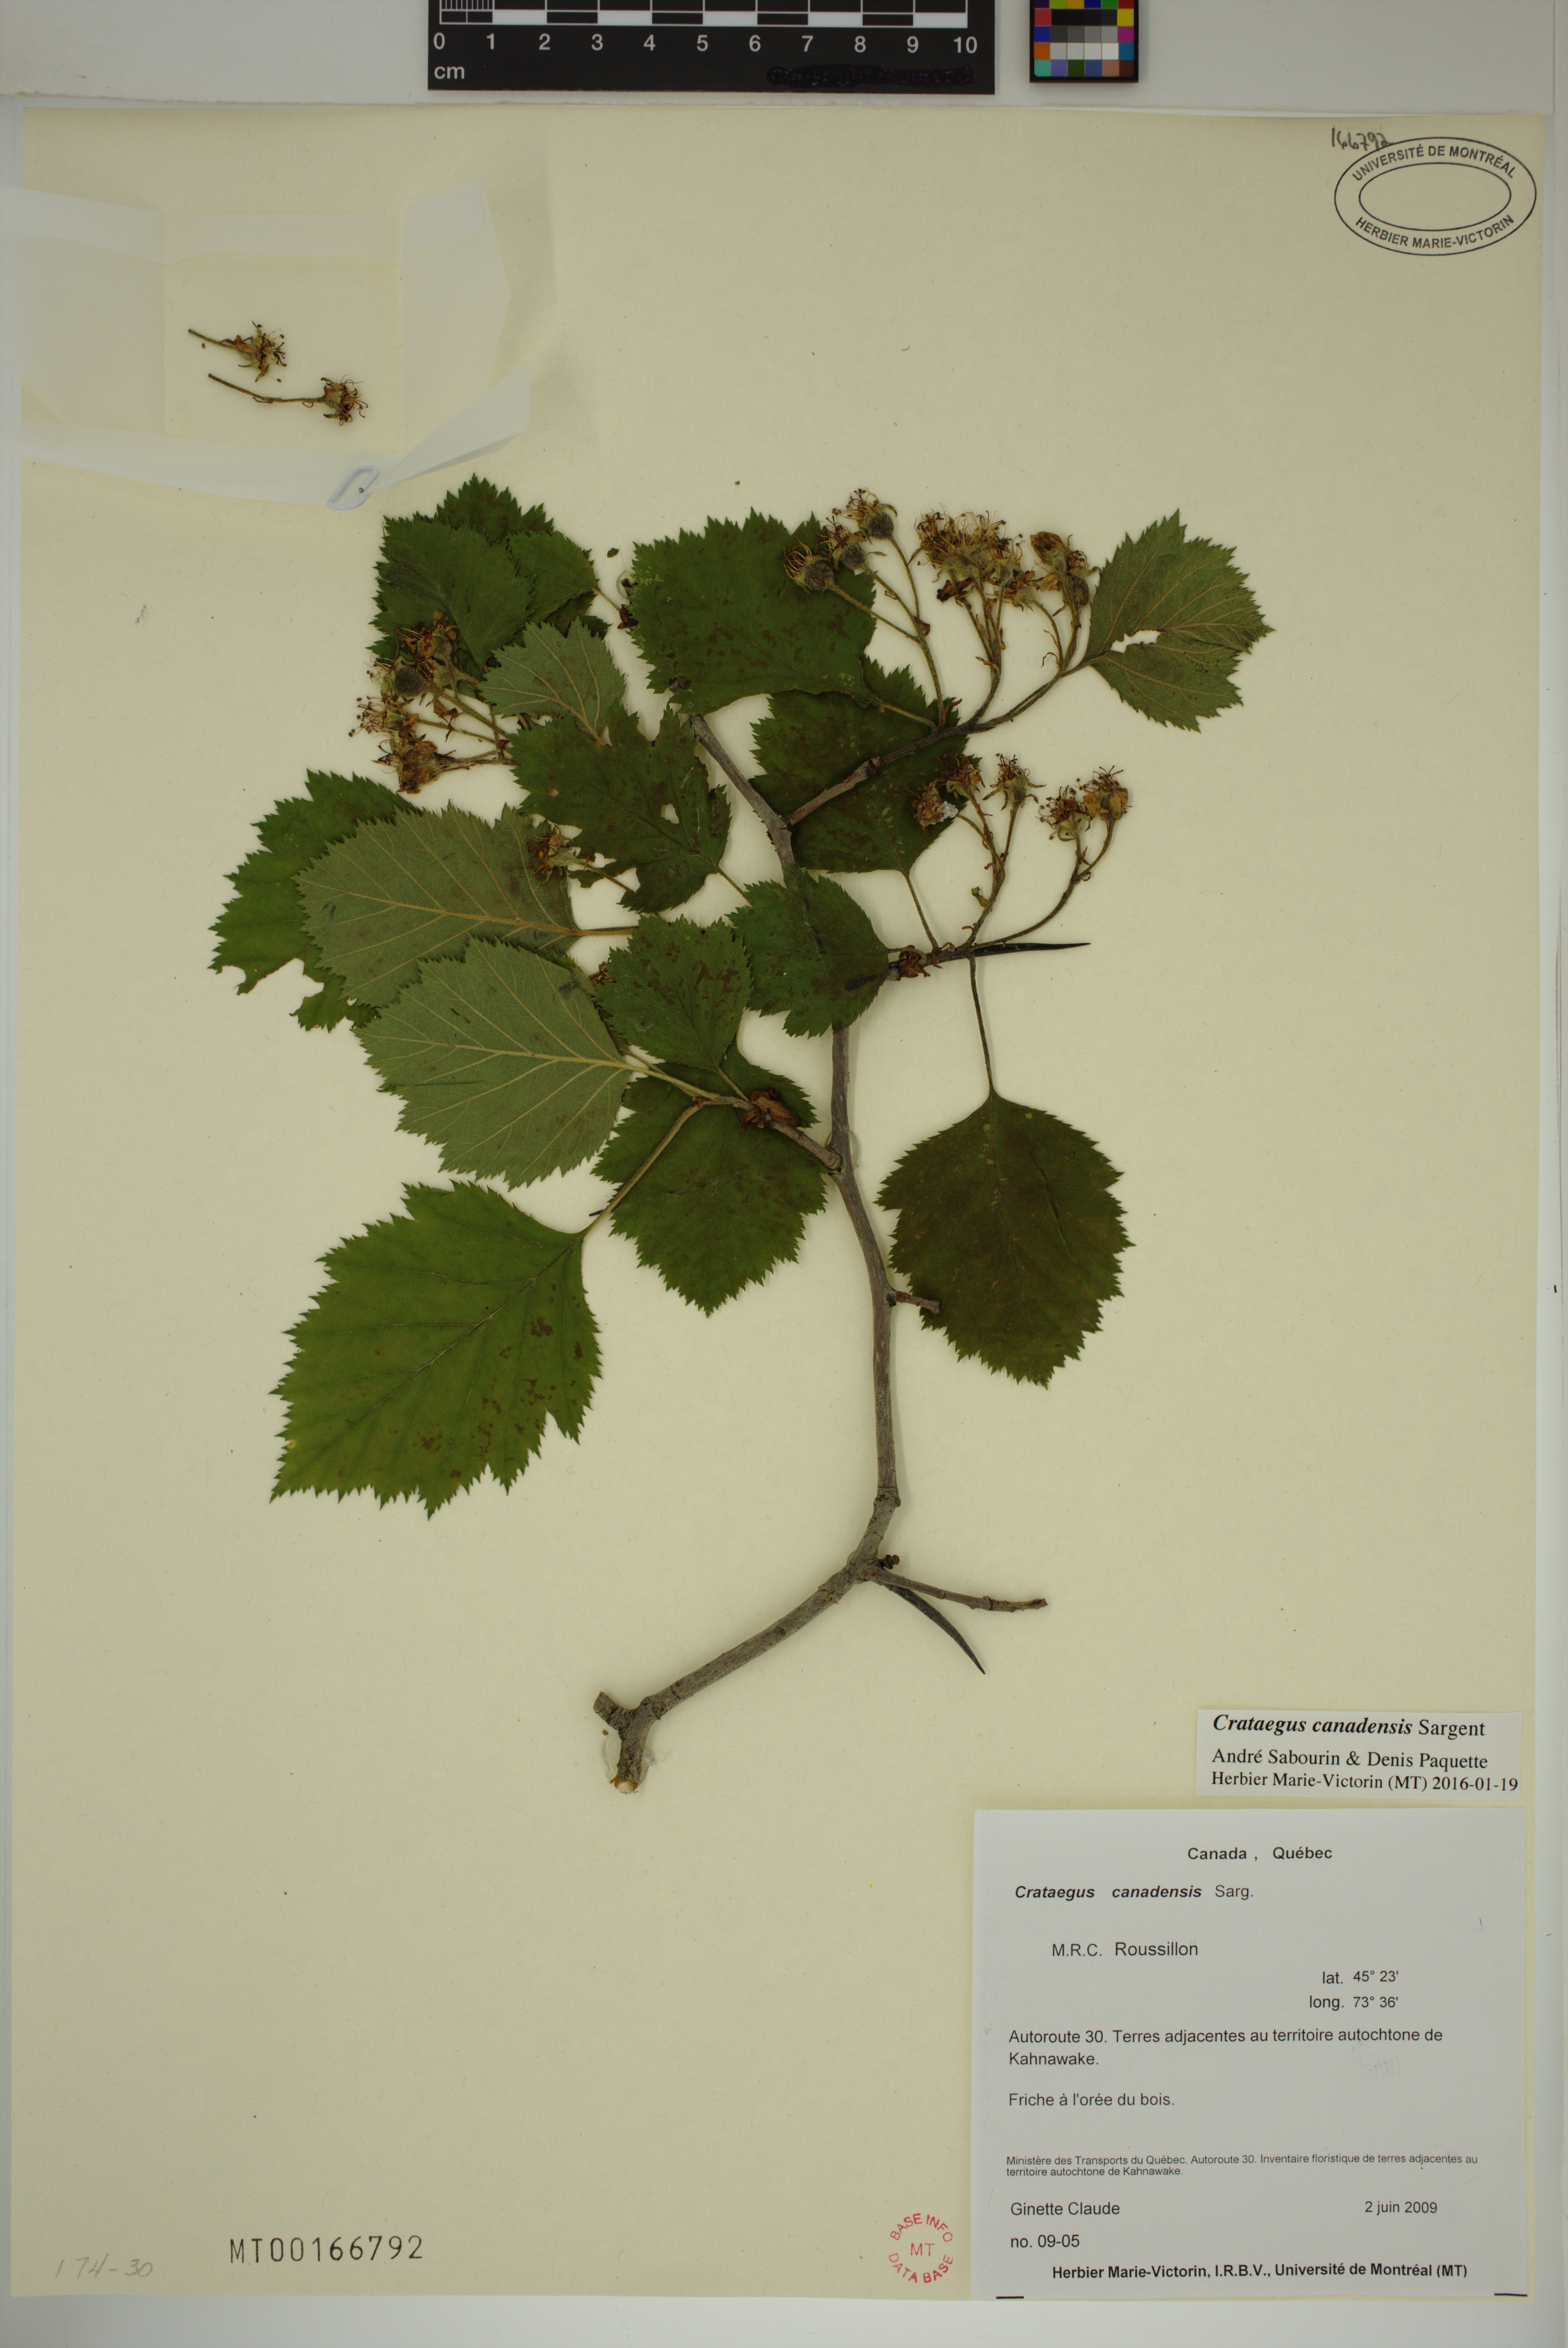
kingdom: Plantae
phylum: Tracheophyta
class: Magnoliopsida
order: Rosales
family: Rosaceae
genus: Crataegus
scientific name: Crataegus submollis
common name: Hairy cockspurthorn
